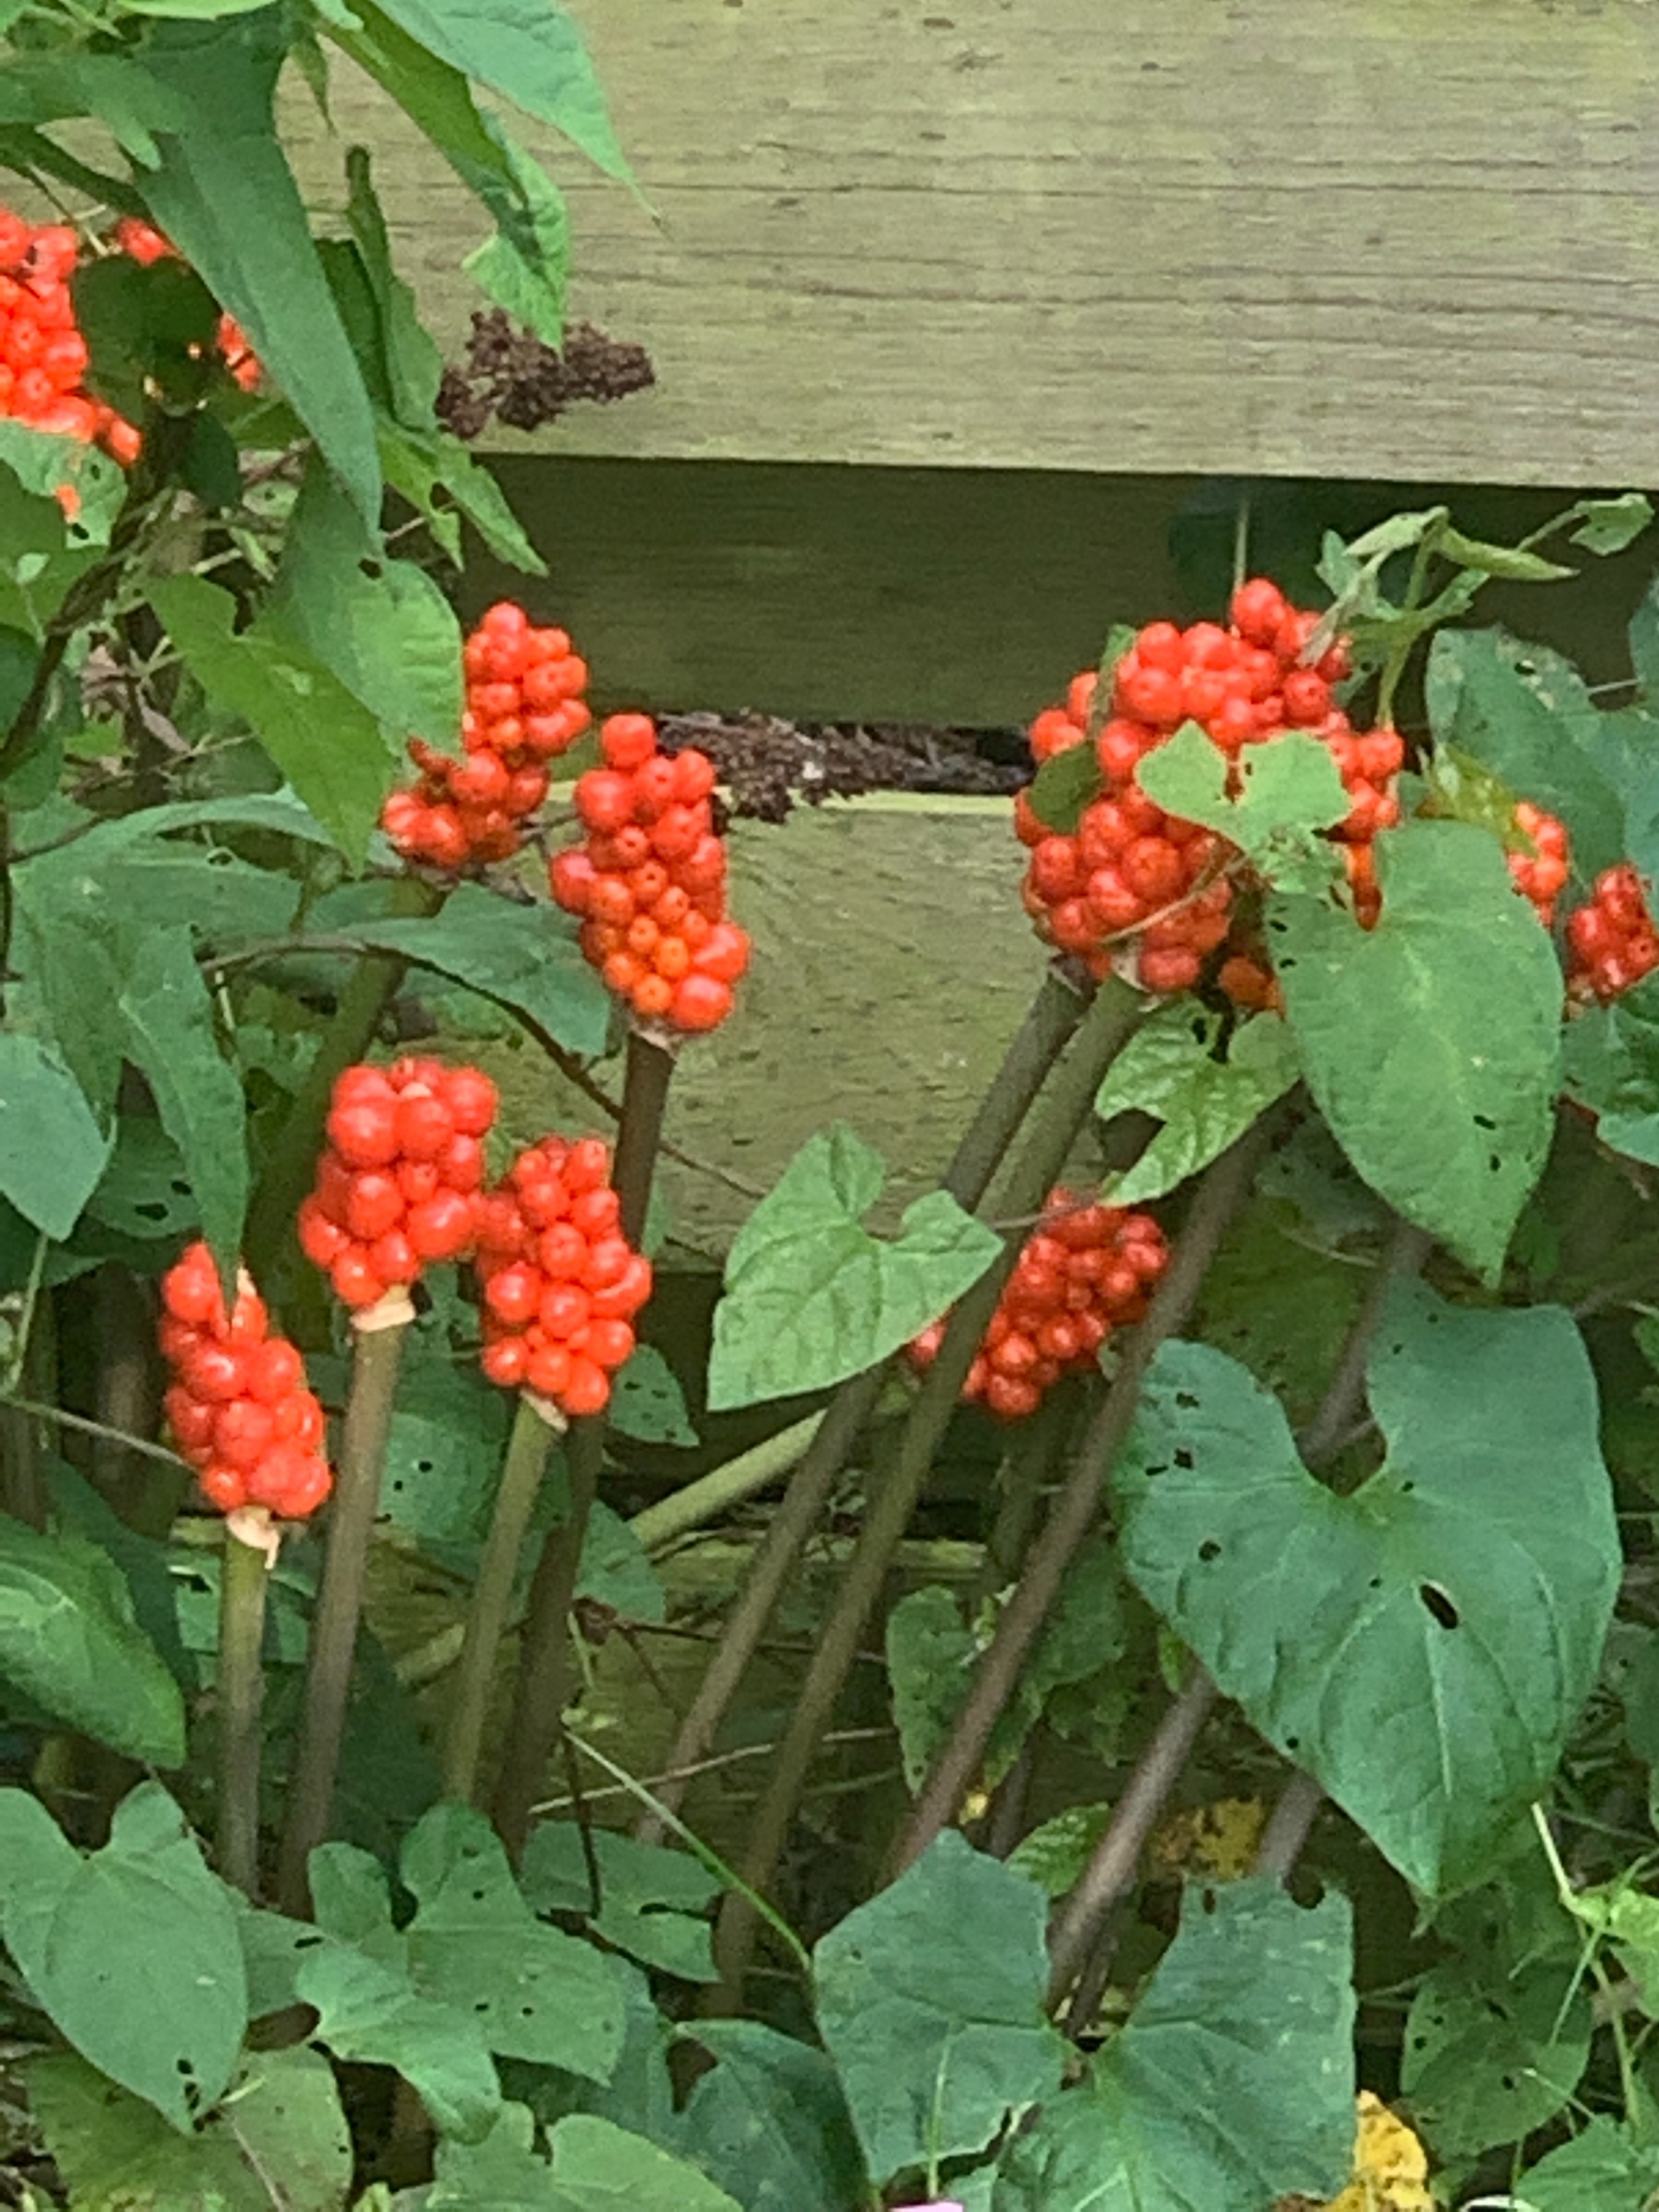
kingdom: Plantae
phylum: Tracheophyta
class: Liliopsida
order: Alismatales
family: Araceae
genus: Arum
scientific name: Arum
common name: Arumslægten
